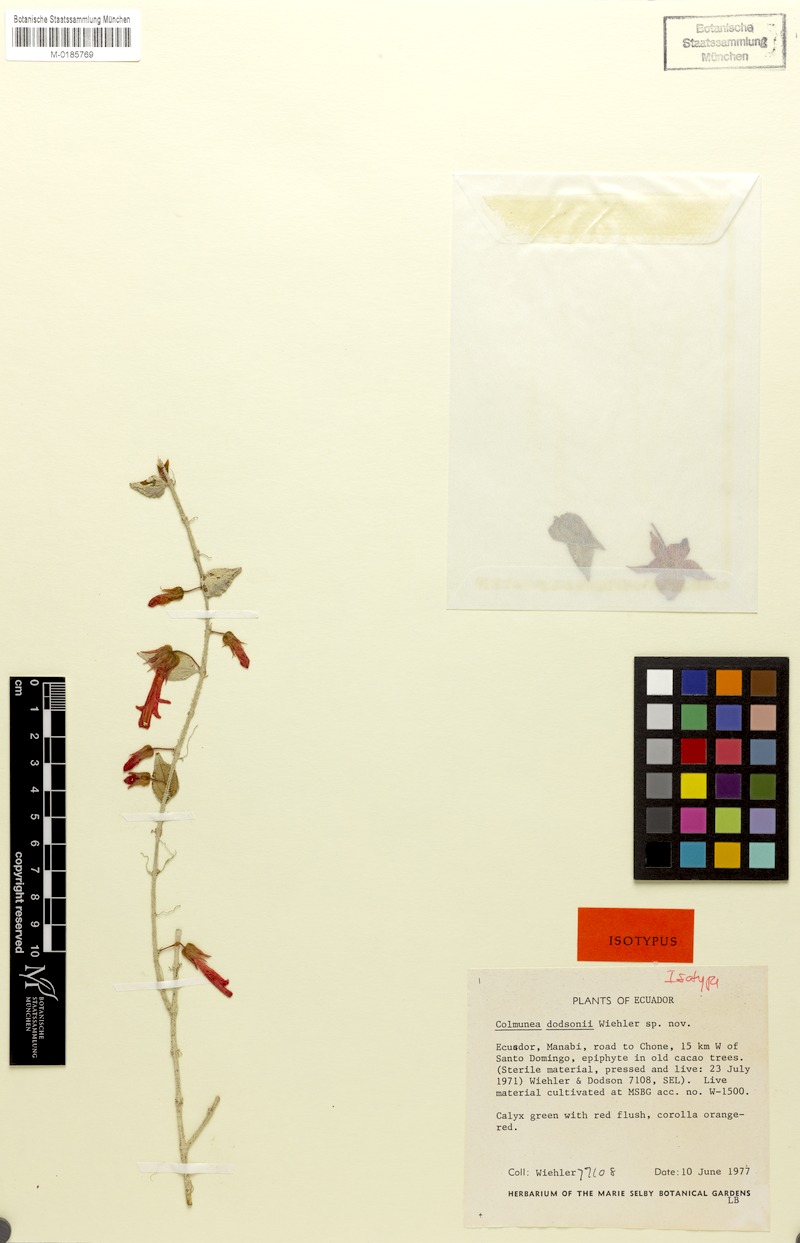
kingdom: Plantae
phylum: Tracheophyta
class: Magnoliopsida
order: Lamiales
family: Gesneriaceae
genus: Columnea
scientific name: Columnea kienastiana
